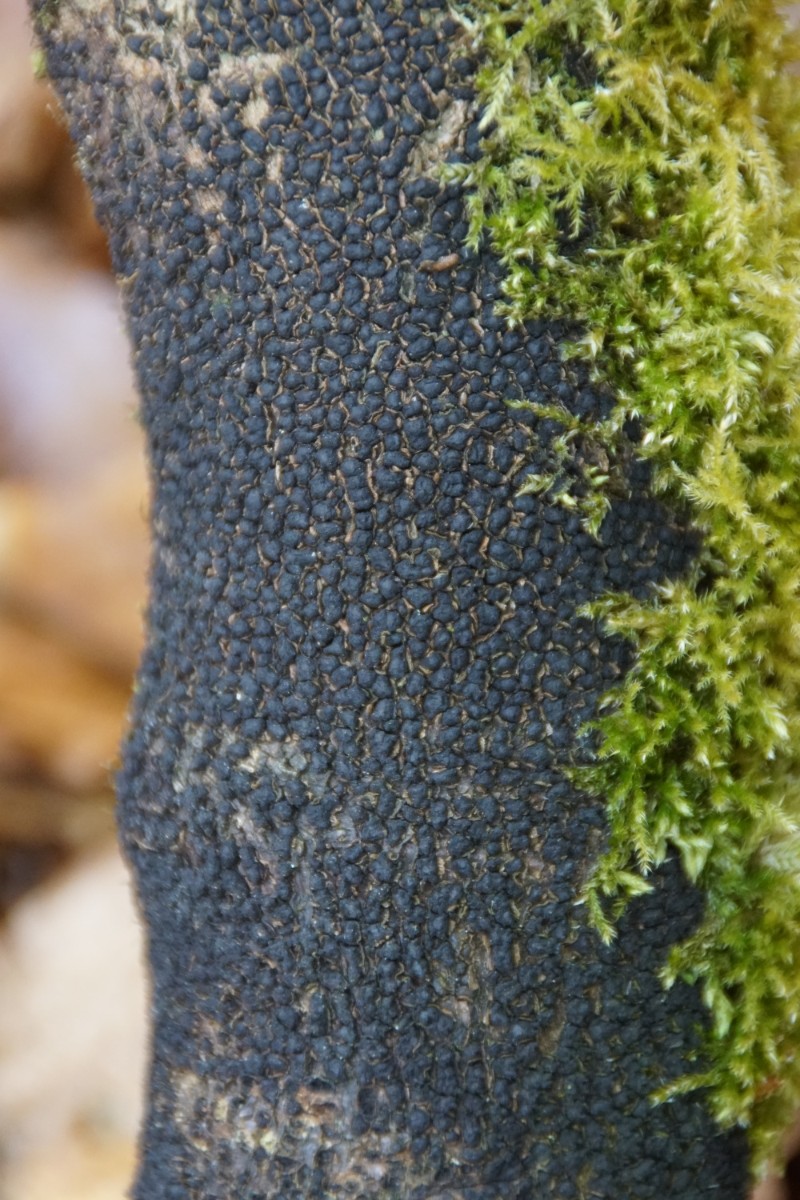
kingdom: Fungi
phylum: Ascomycota
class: Sordariomycetes
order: Xylariales
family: Melogrammataceae
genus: Melogramma
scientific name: Melogramma spiniferum
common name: bøgefod-kulhals
